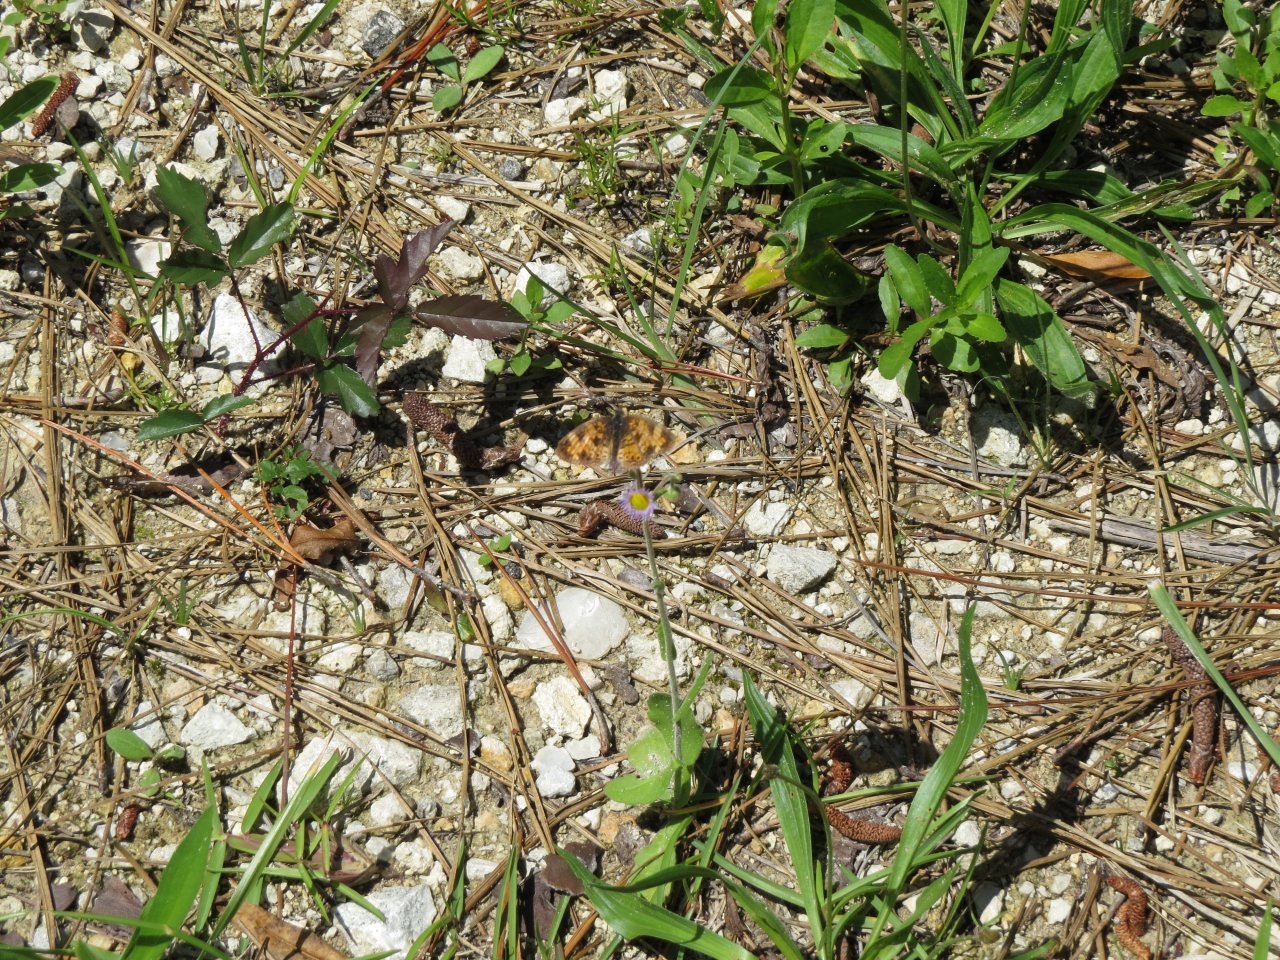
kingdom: Animalia
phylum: Arthropoda
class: Insecta
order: Lepidoptera
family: Nymphalidae
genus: Phyciodes
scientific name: Phyciodes tharos
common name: Pearl Crescent
